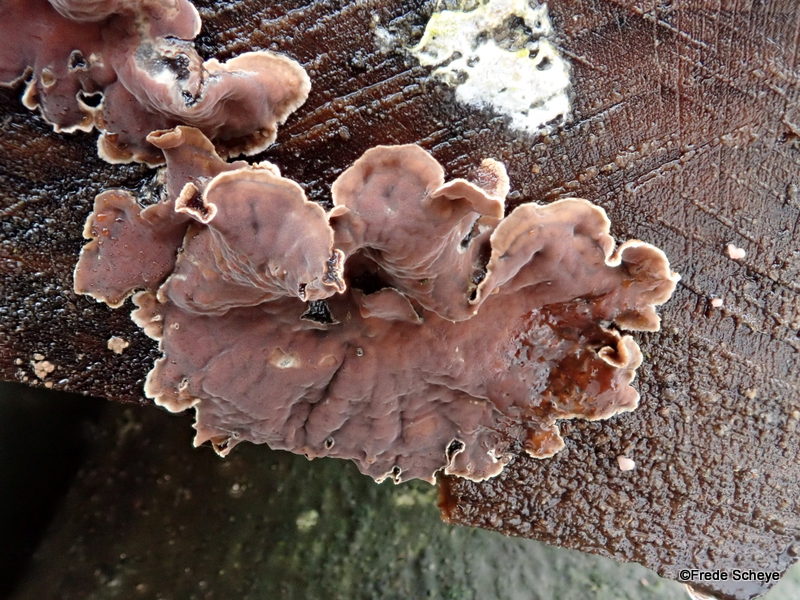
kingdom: Fungi
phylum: Basidiomycota
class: Agaricomycetes
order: Agaricales
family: Cyphellaceae
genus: Chondrostereum
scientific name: Chondrostereum purpureum
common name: purpurlædersvamp
